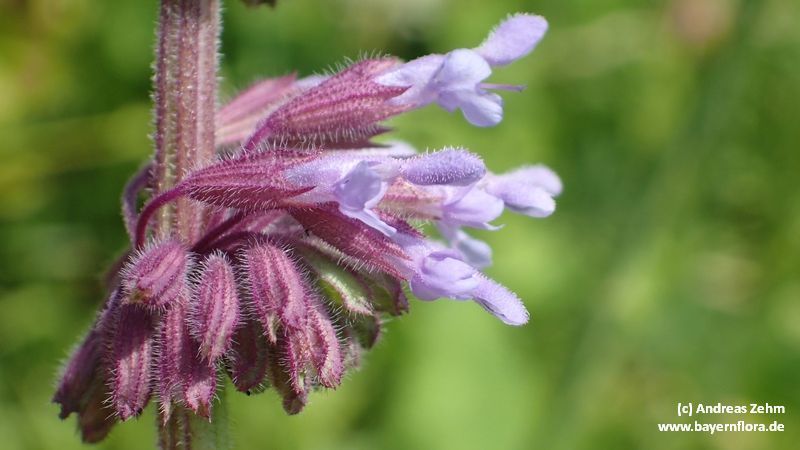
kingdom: Plantae
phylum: Tracheophyta
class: Magnoliopsida
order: Lamiales
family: Lamiaceae
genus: Salvia
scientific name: Salvia verticillata
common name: Whorled clary
